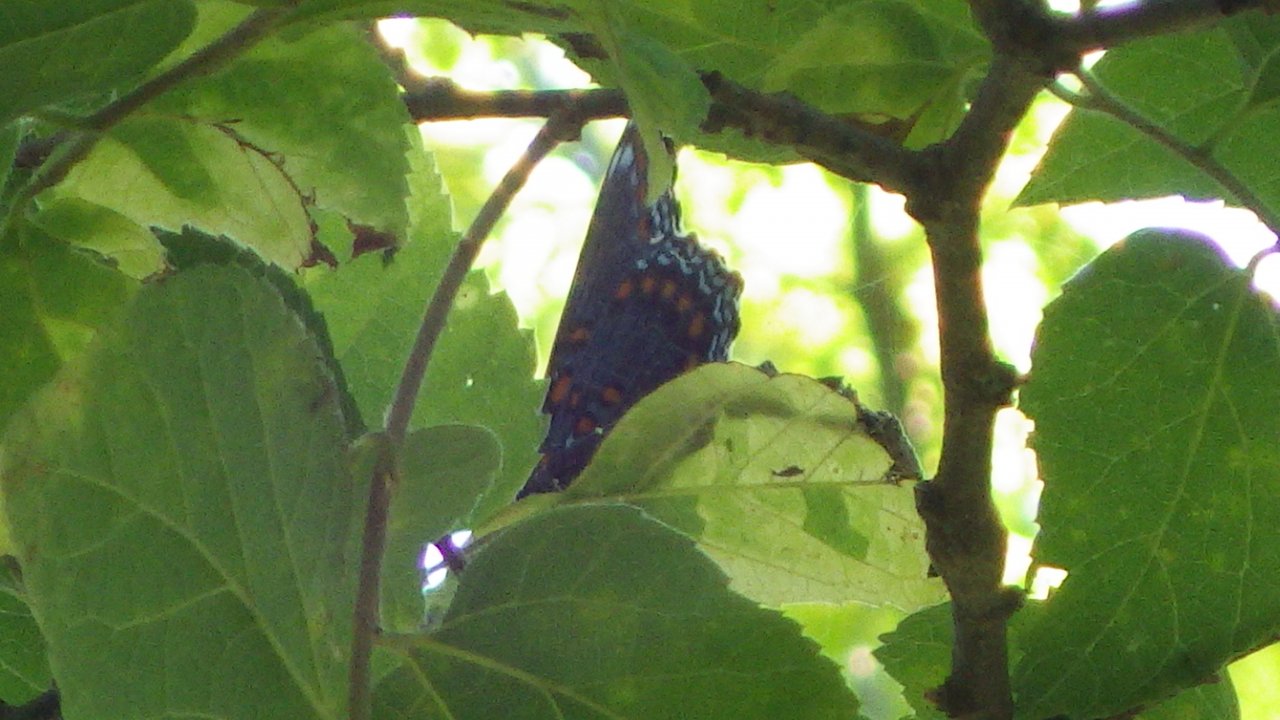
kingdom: Animalia
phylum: Arthropoda
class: Insecta
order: Lepidoptera
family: Nymphalidae
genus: Limenitis
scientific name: Limenitis astyanax
